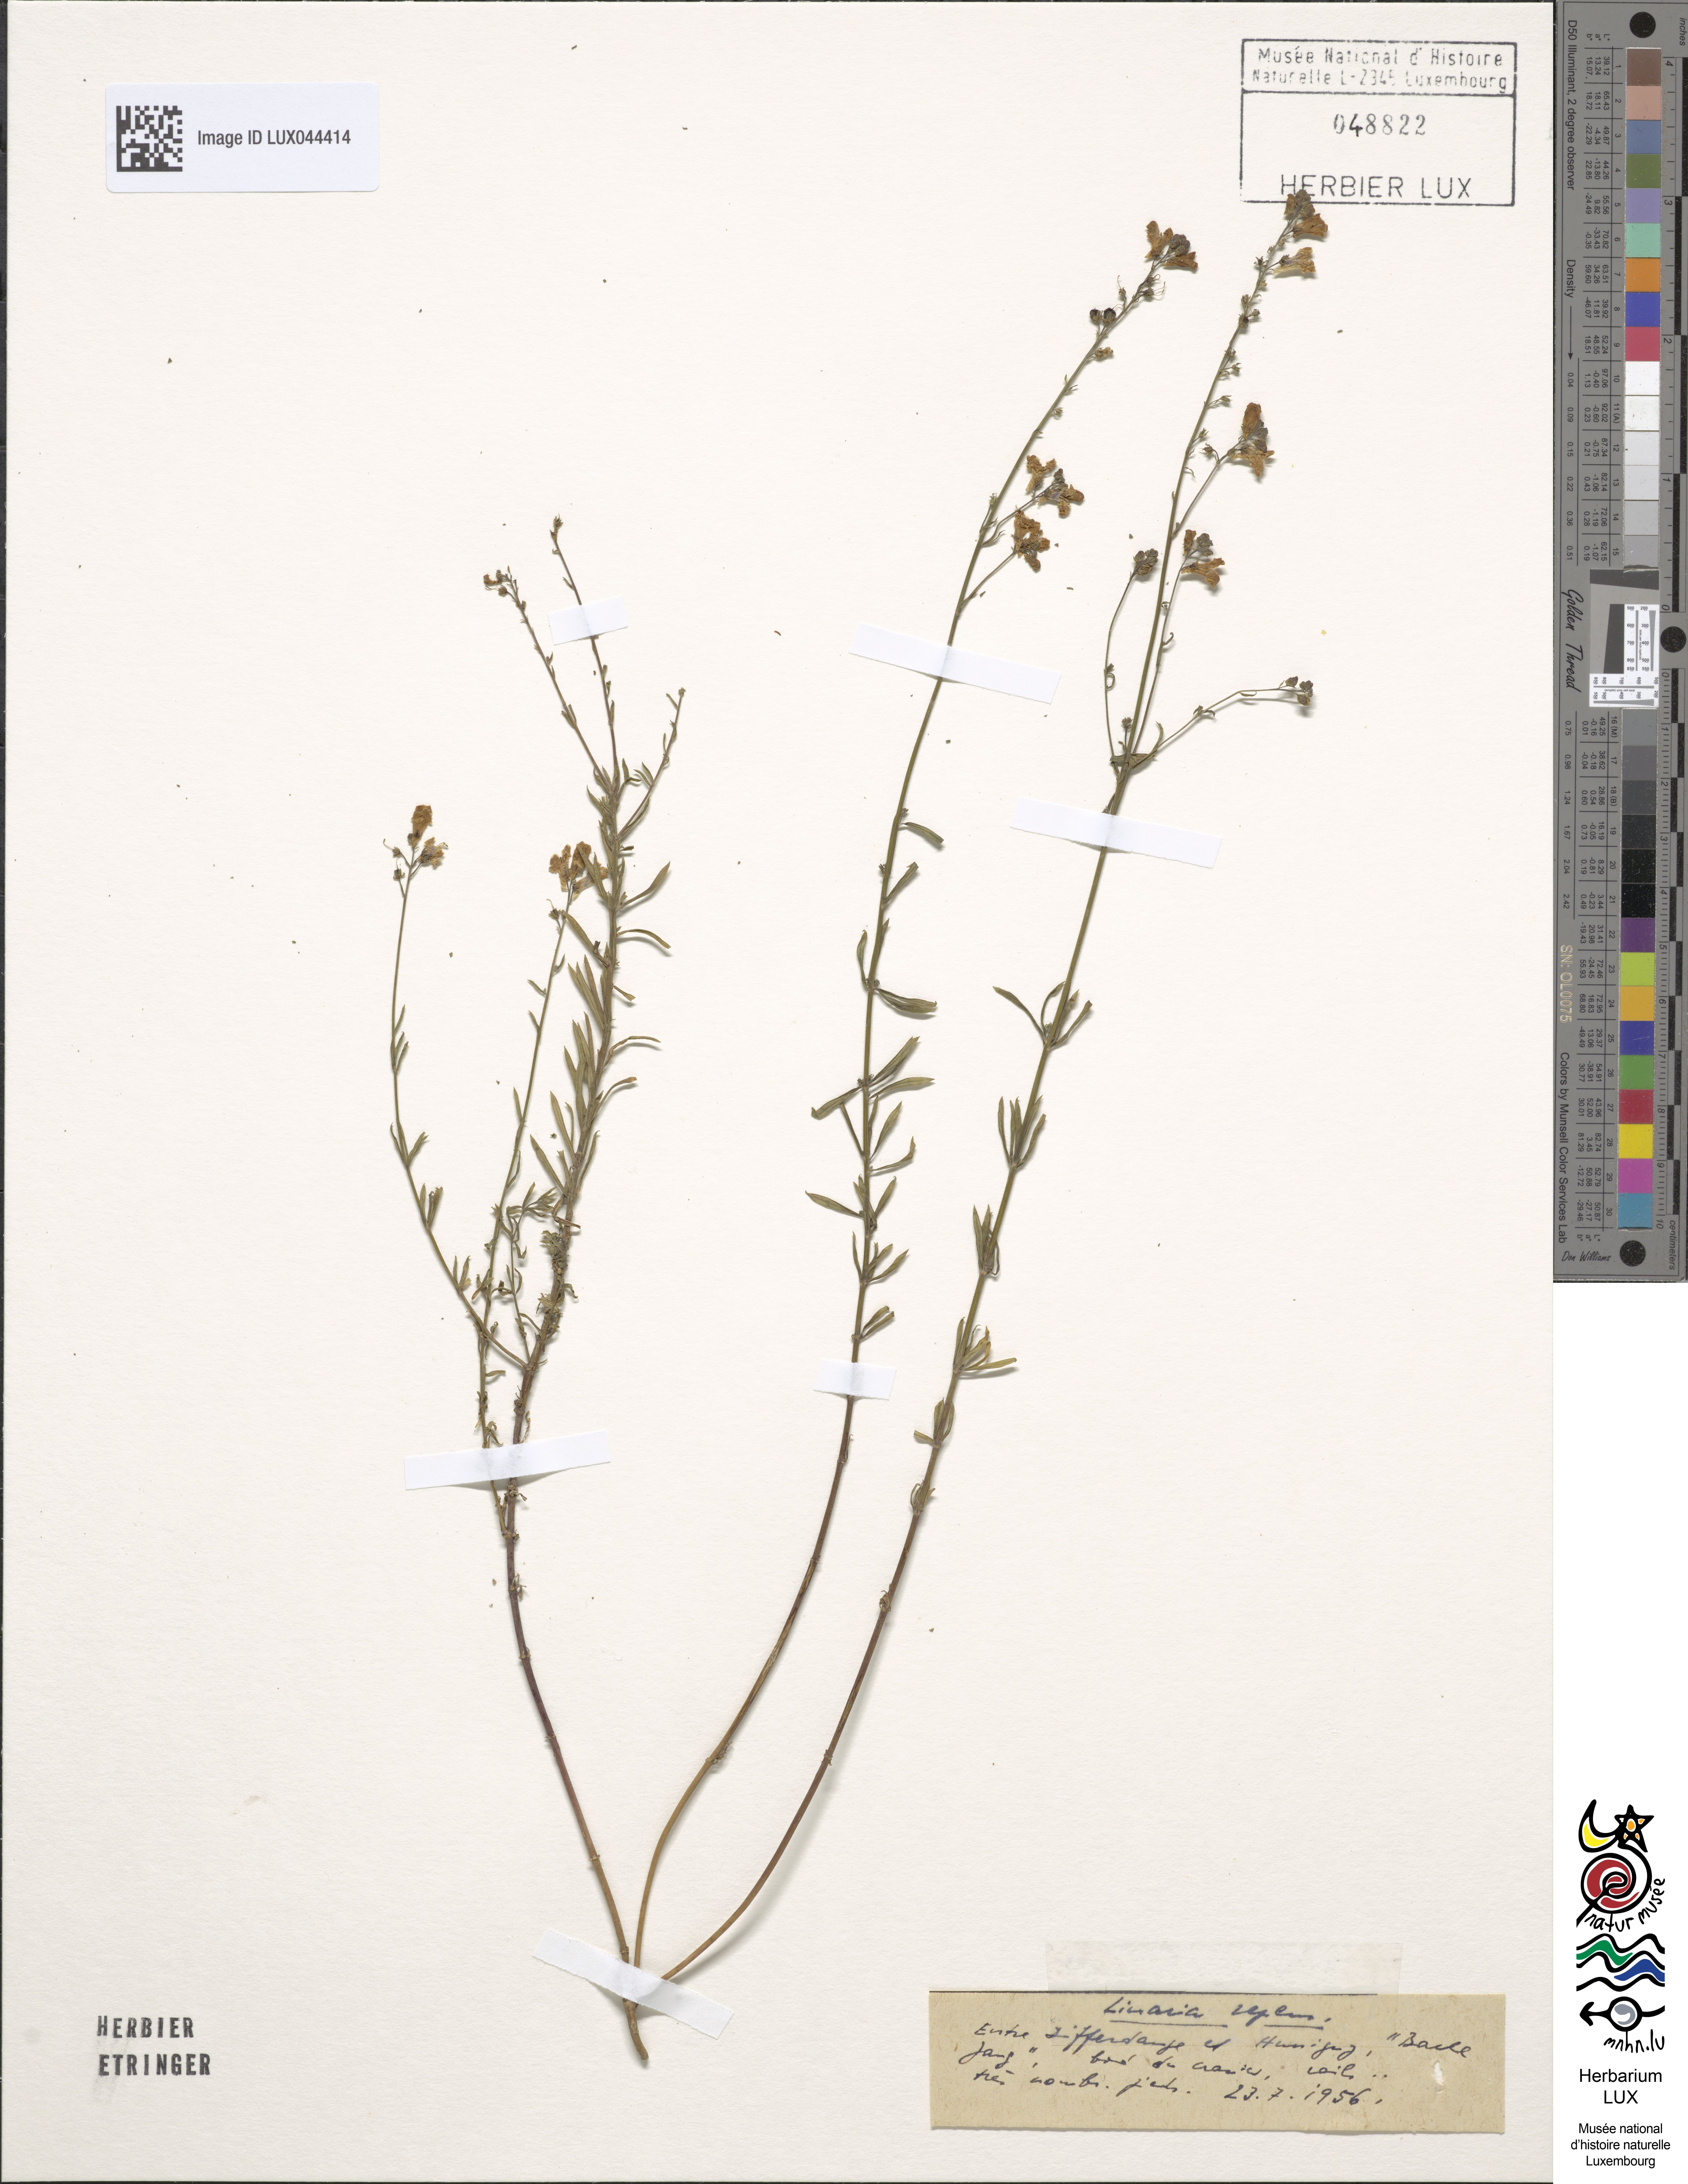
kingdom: Plantae
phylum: Tracheophyta
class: Magnoliopsida
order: Lamiales
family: Plantaginaceae
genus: Linaria
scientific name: Linaria repens
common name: Pale toadflax
